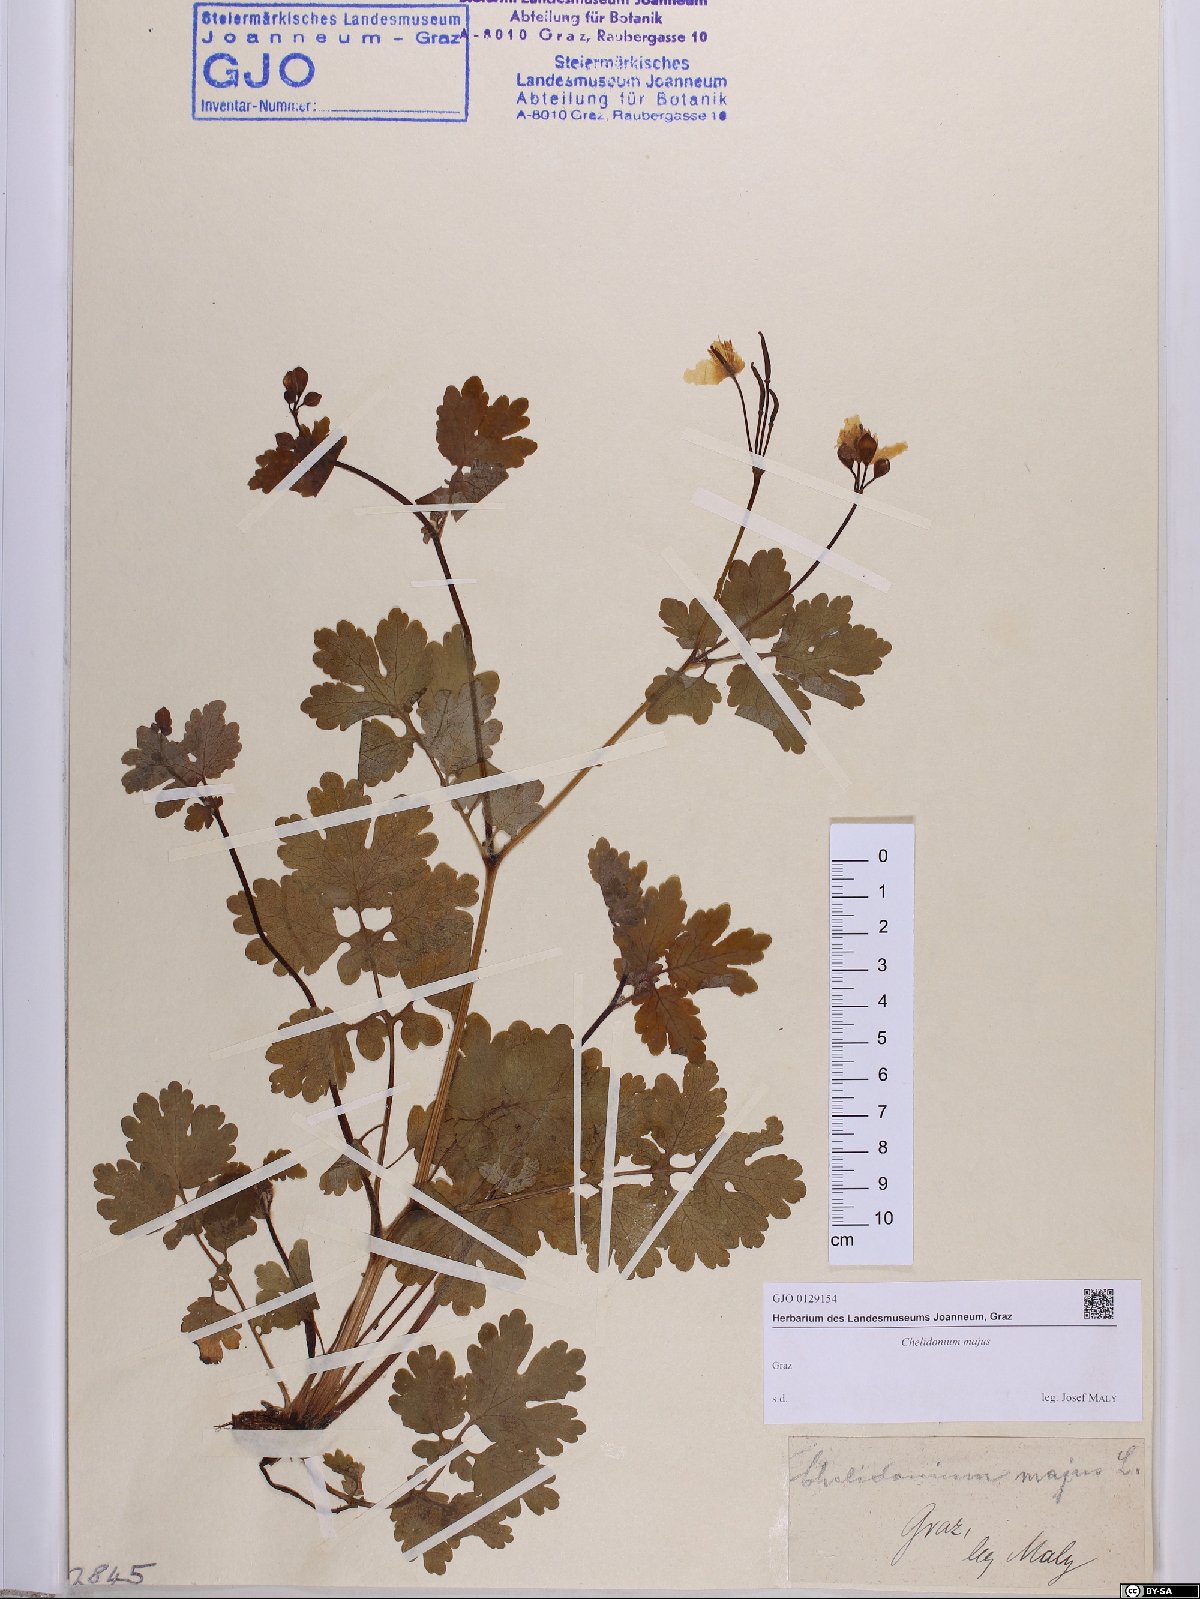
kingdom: Plantae
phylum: Tracheophyta
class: Magnoliopsida
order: Ranunculales
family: Papaveraceae
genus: Chelidonium
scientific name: Chelidonium majus
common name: Greater celandine
